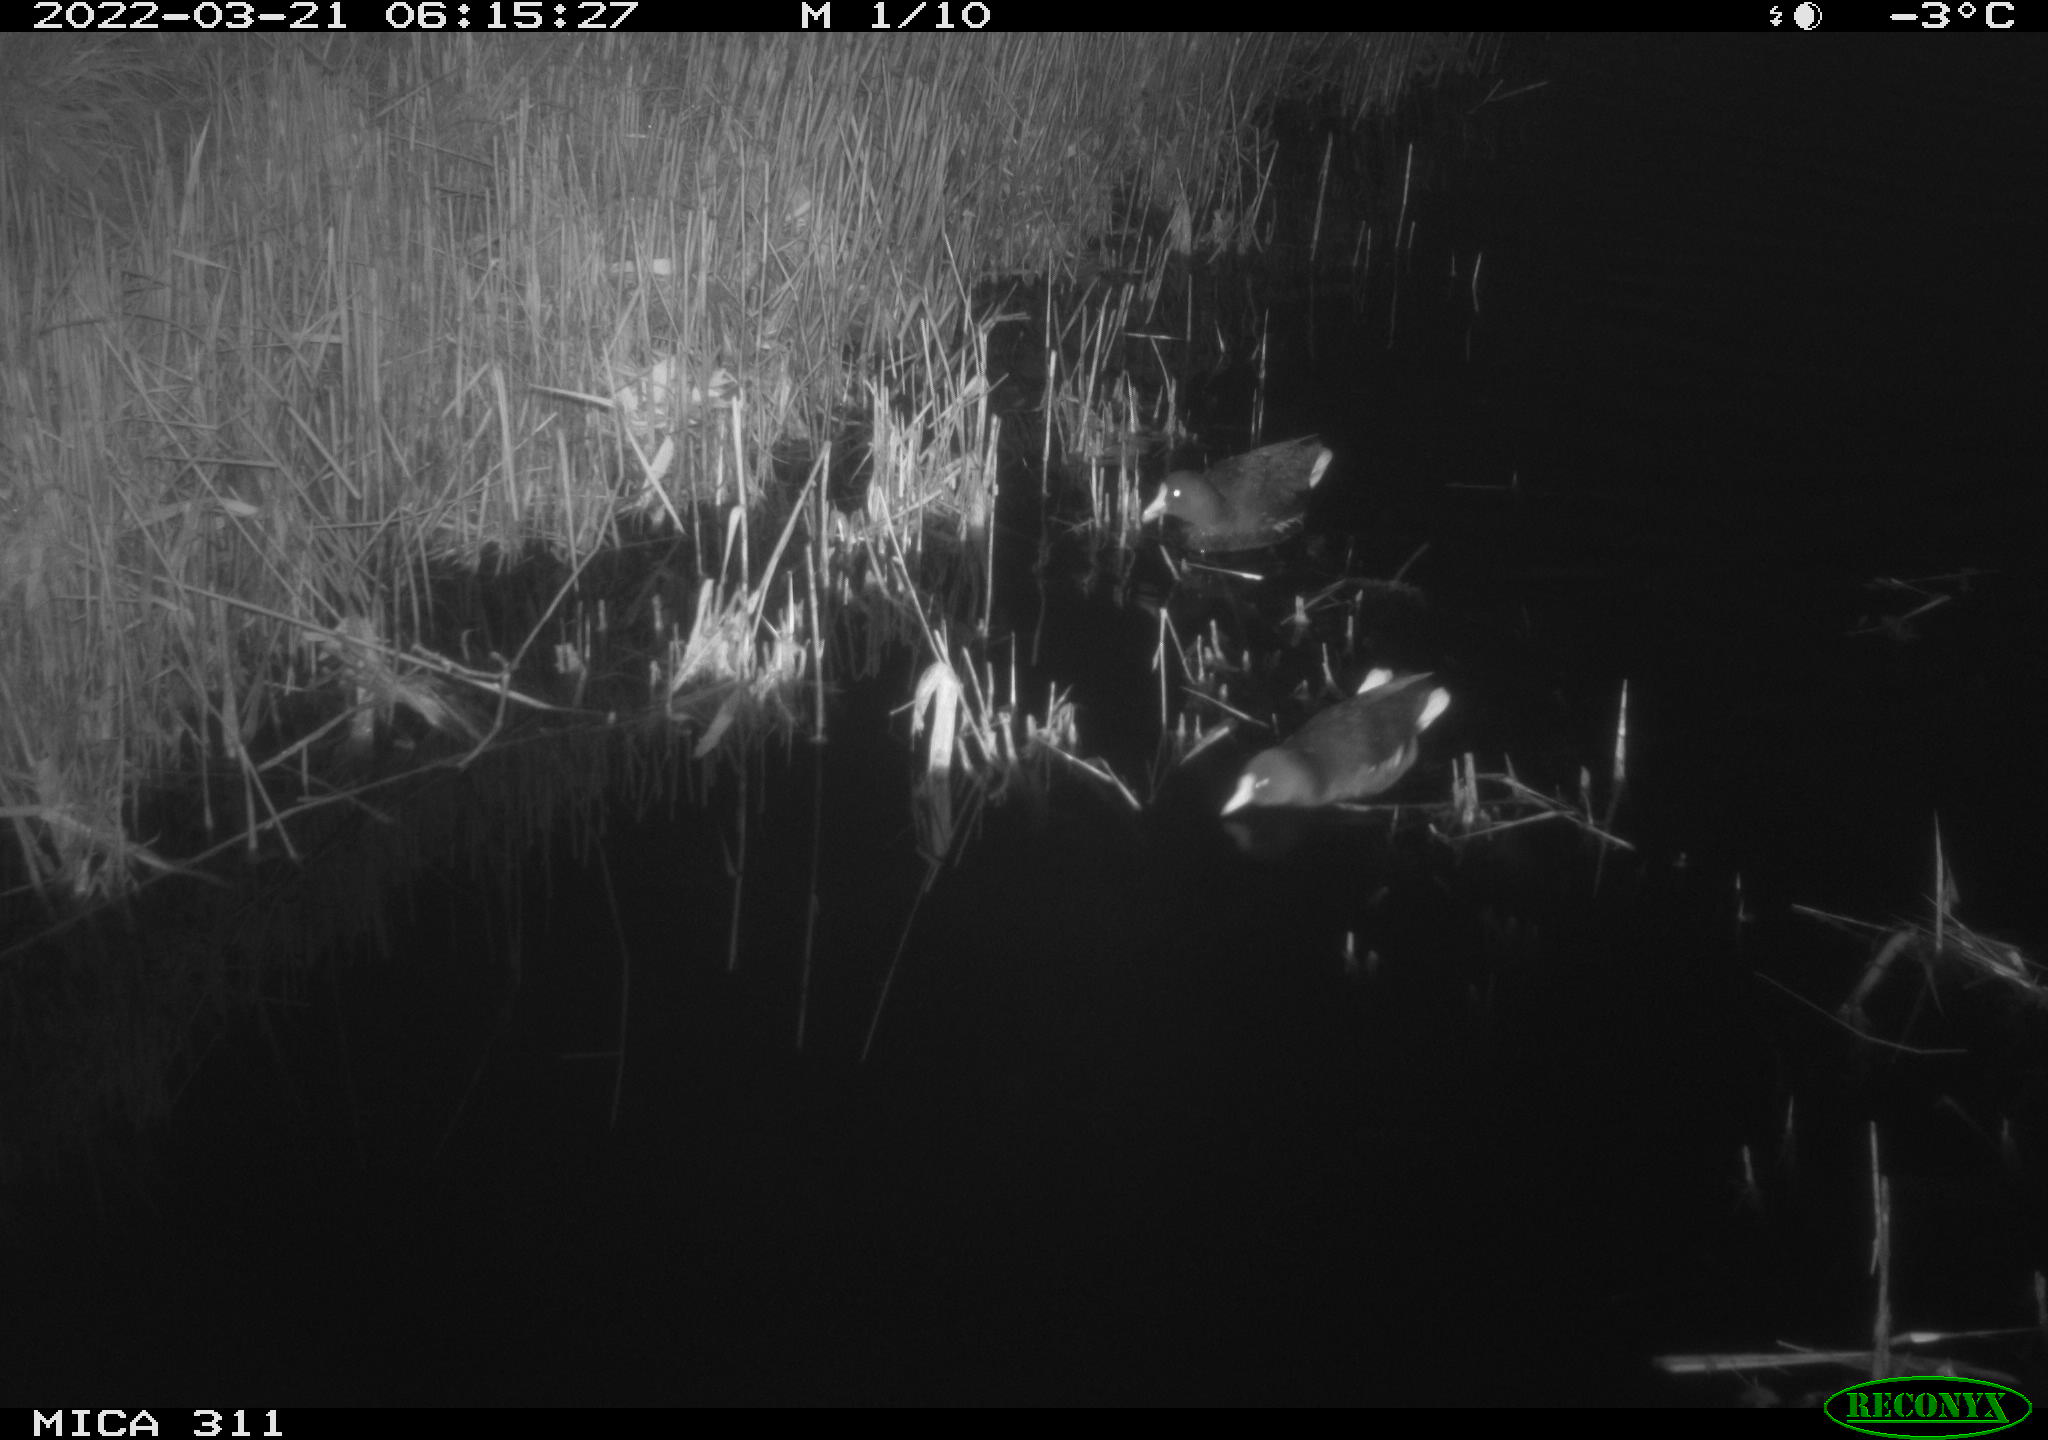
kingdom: Animalia
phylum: Chordata
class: Aves
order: Gruiformes
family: Rallidae
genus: Gallinula
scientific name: Gallinula chloropus
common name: Common moorhen
